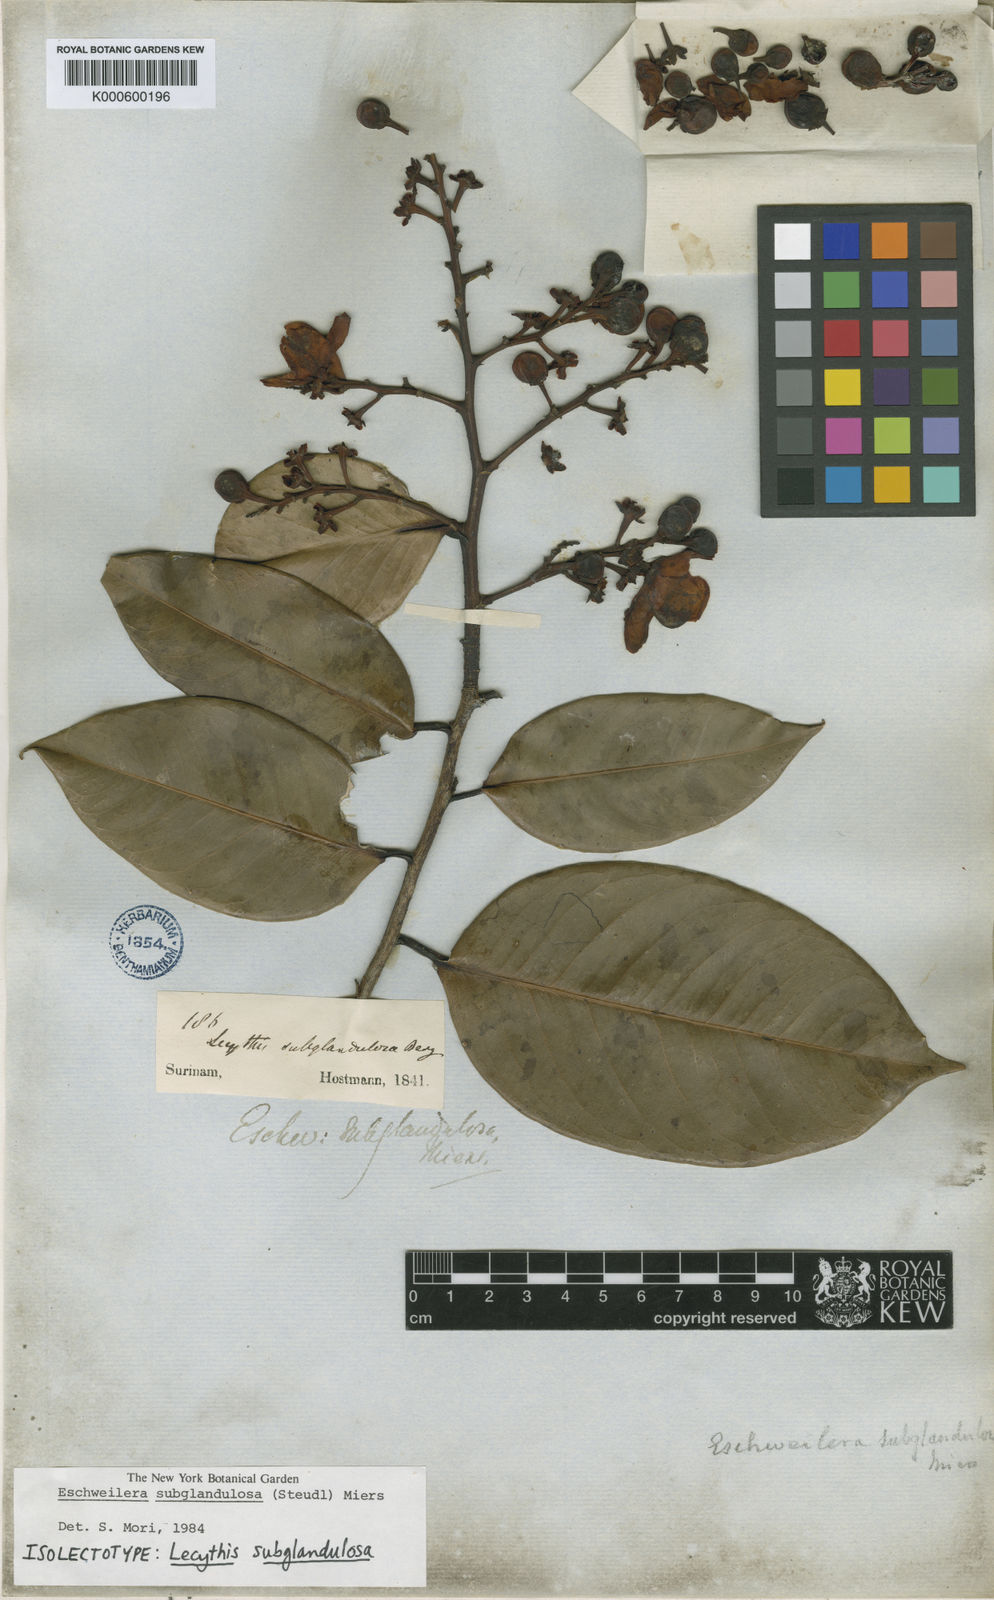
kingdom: Plantae
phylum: Tracheophyta
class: Magnoliopsida
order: Ericales
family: Lecythidaceae
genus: Eschweilera
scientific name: Eschweilera subglandulosa
